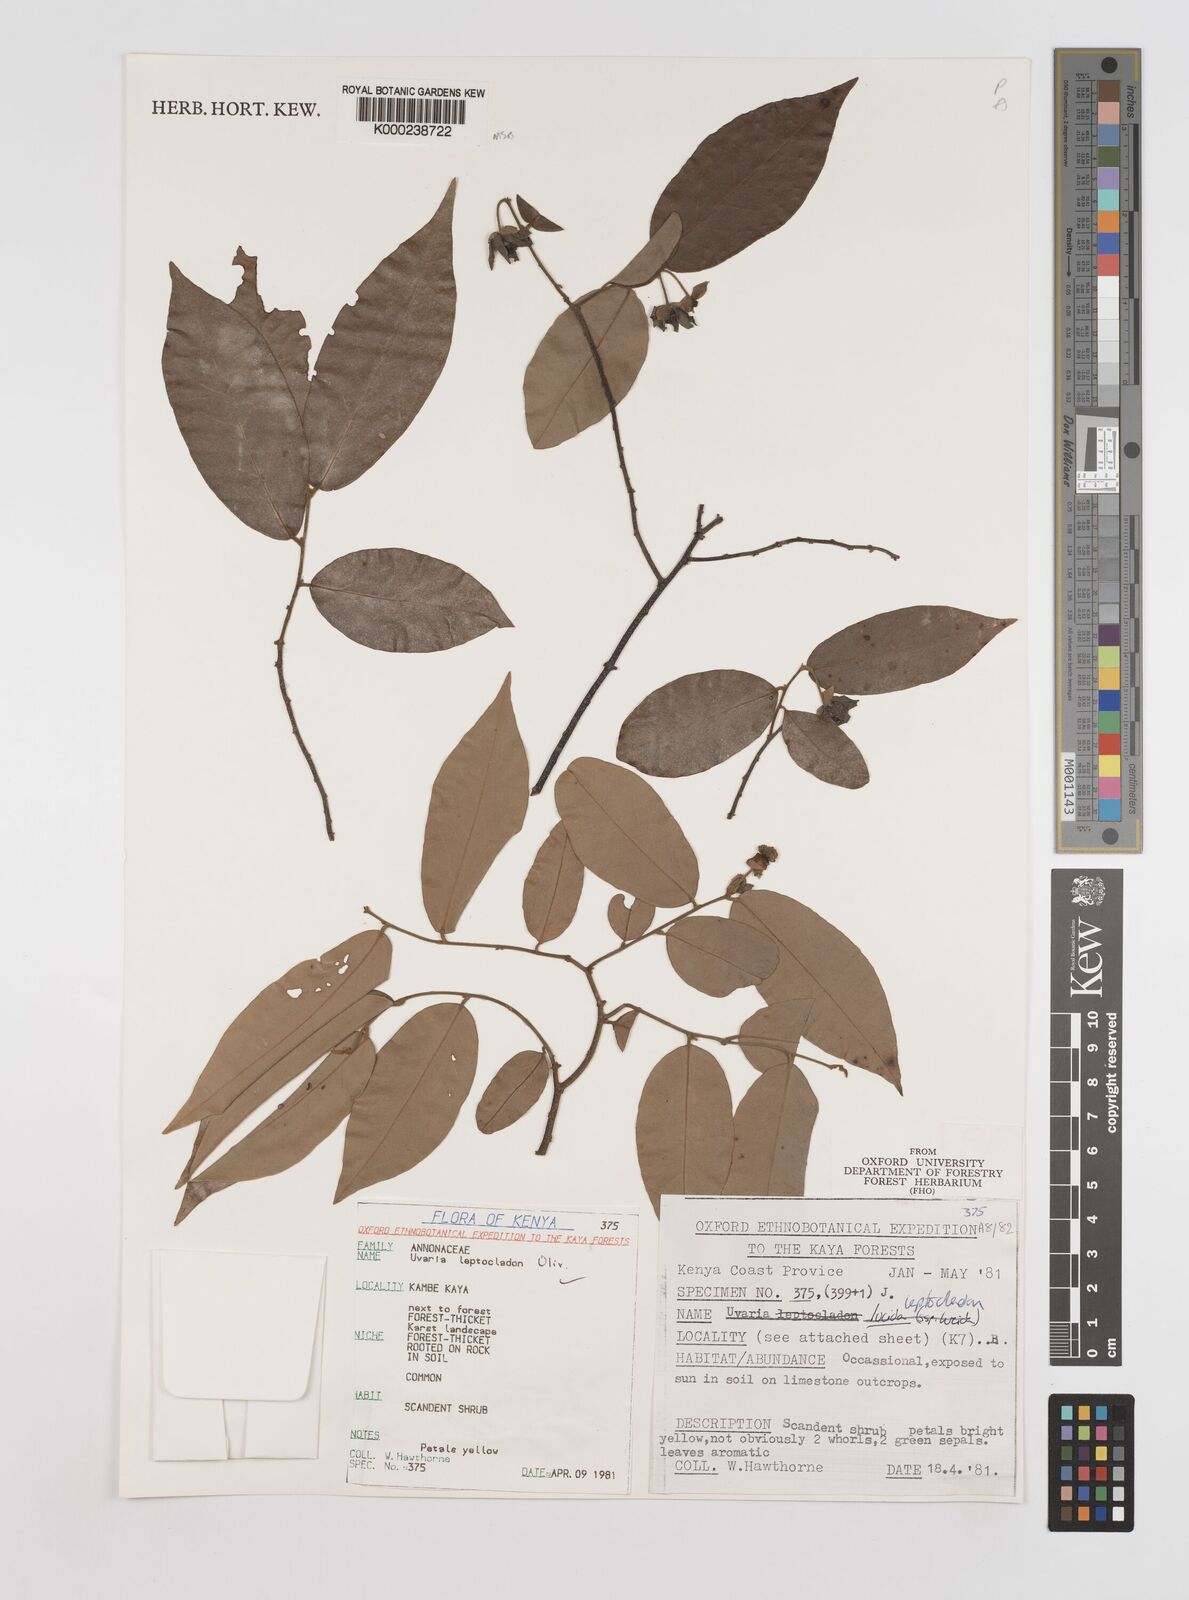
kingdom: Plantae
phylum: Tracheophyta
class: Magnoliopsida
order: Magnoliales
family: Annonaceae
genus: Uvaria
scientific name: Uvaria leptocladon
